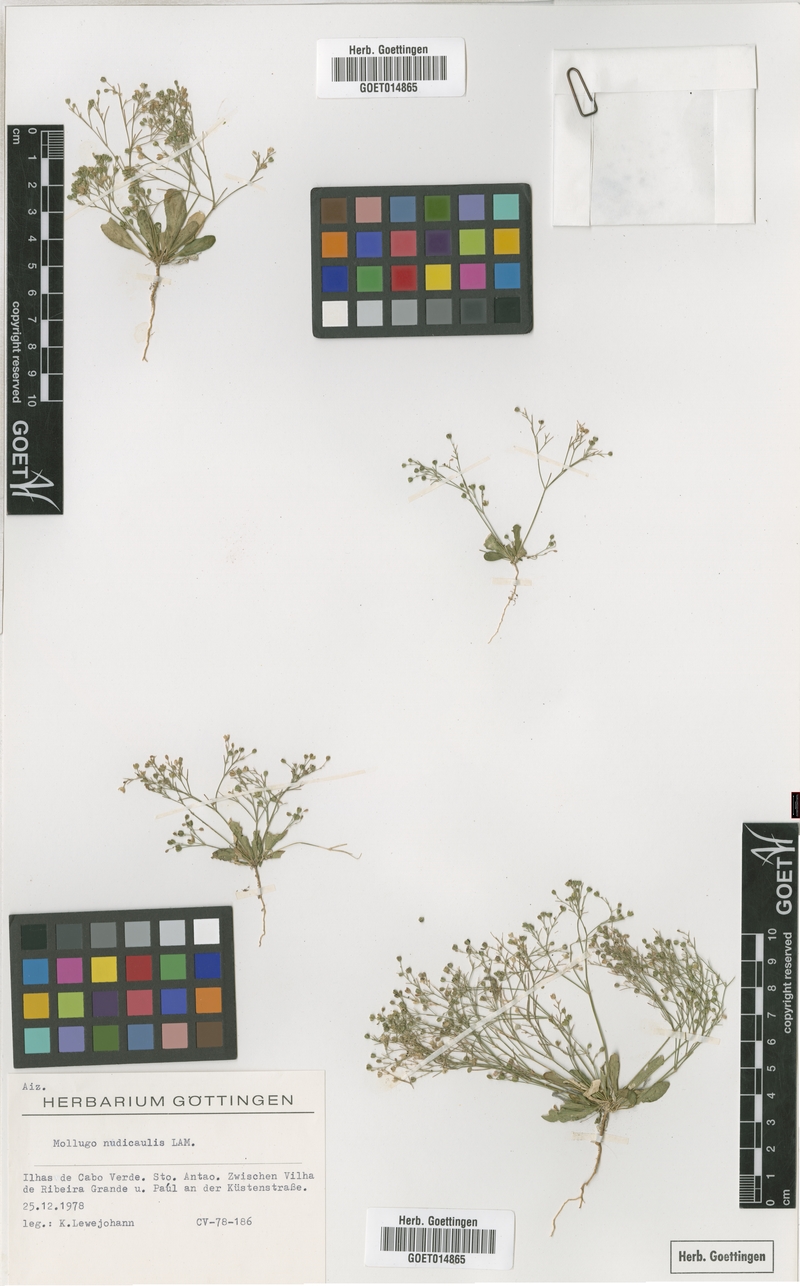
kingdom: Plantae
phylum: Tracheophyta
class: Magnoliopsida
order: Caryophyllales
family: Molluginaceae
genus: Paramollugo
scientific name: Paramollugo nudicaulis
